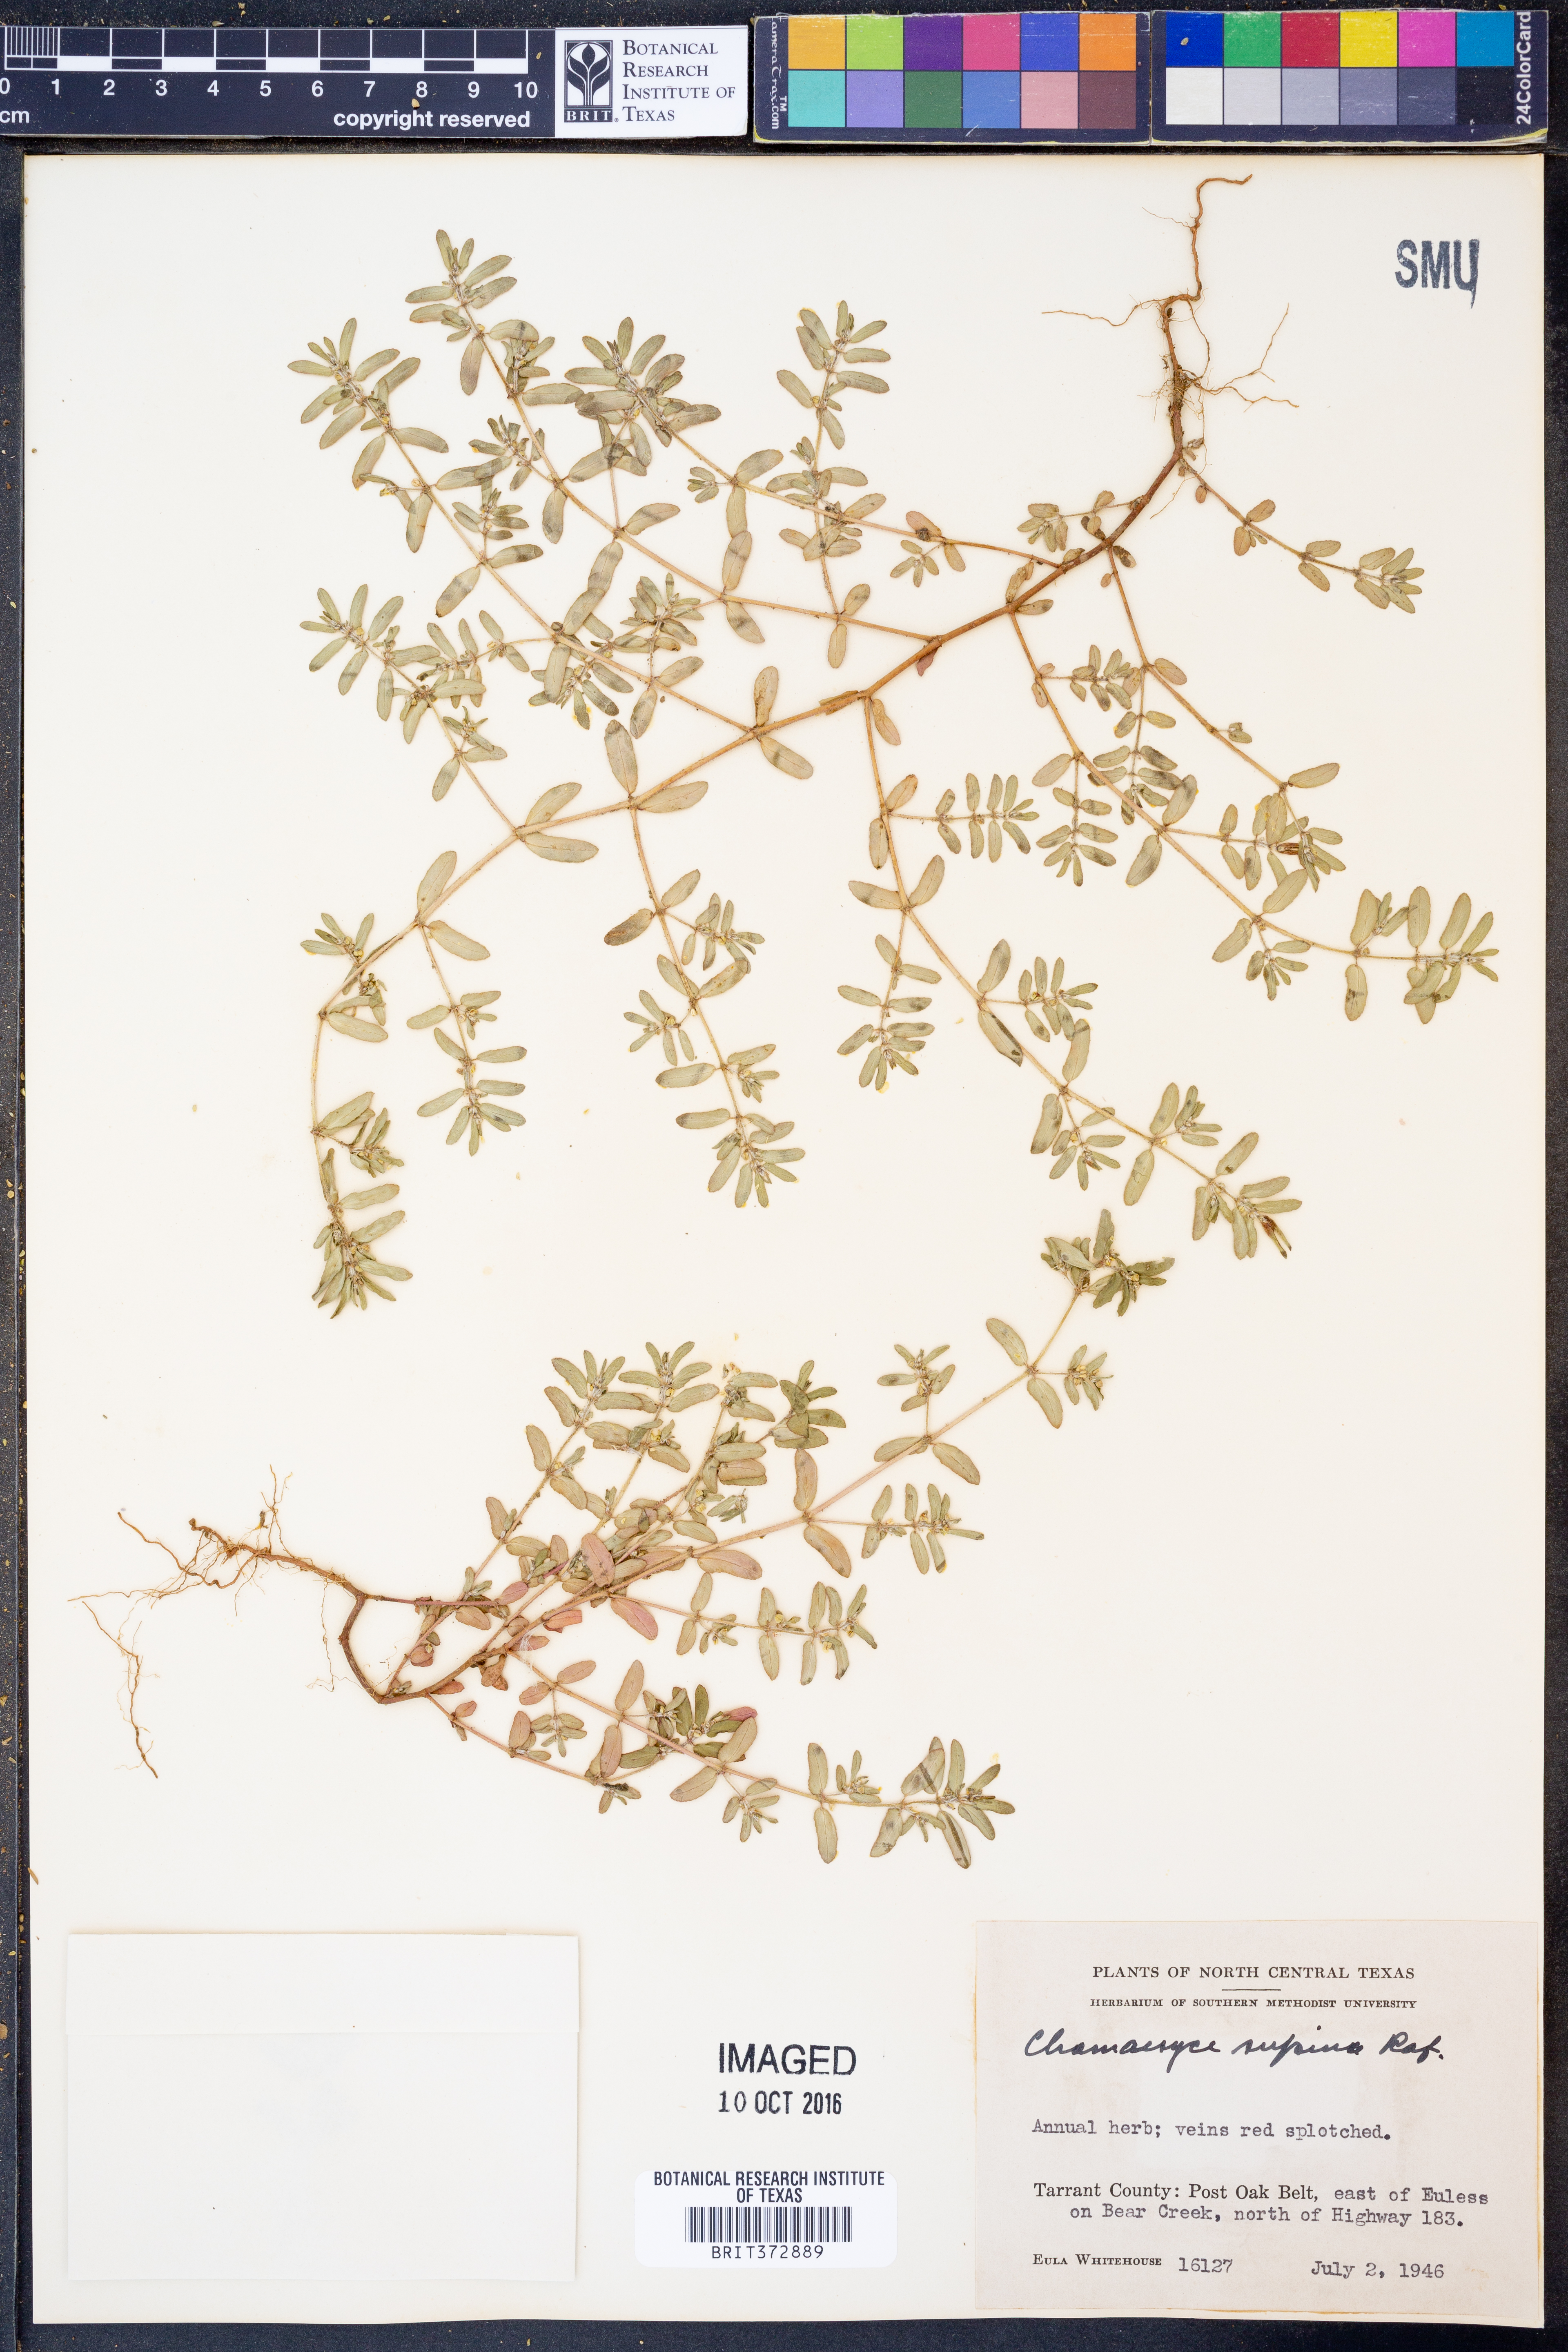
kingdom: Plantae
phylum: Tracheophyta
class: Magnoliopsida
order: Malpighiales
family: Euphorbiaceae
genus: Euphorbia
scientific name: Euphorbia maculata
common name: Spotted spurge
